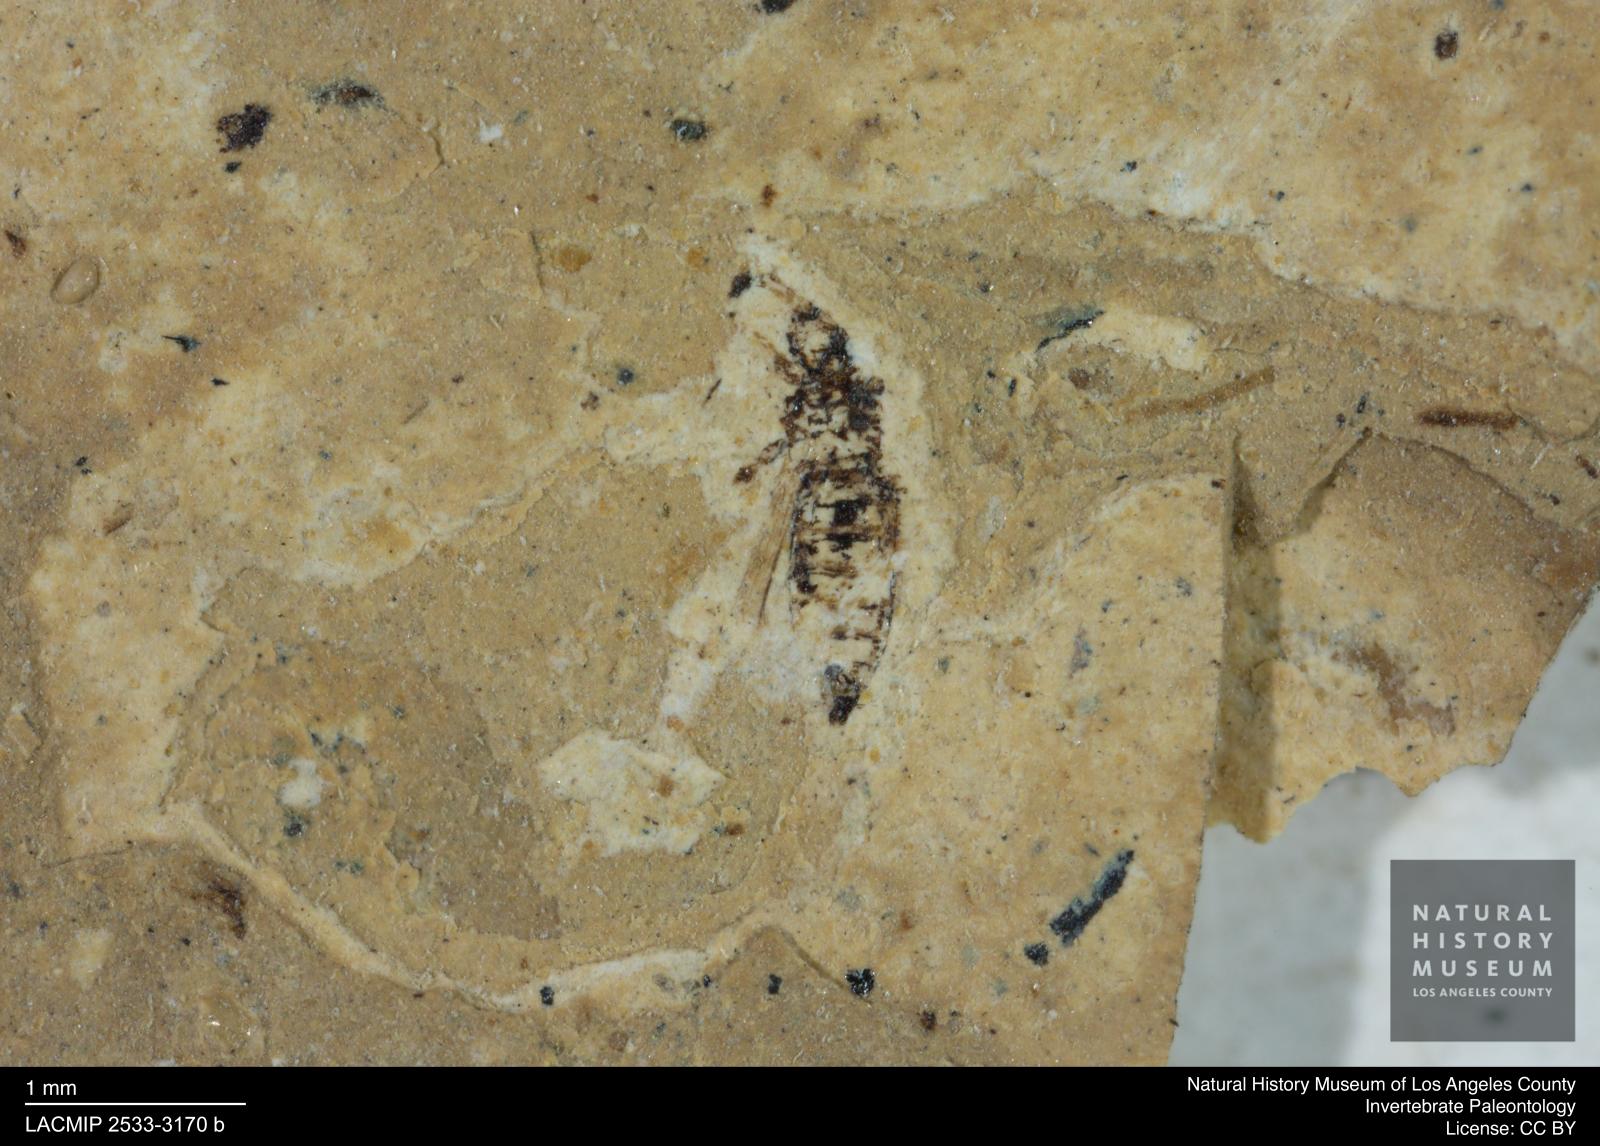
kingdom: Animalia
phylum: Arthropoda
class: Insecta
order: Thysanoptera
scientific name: Thysanoptera
